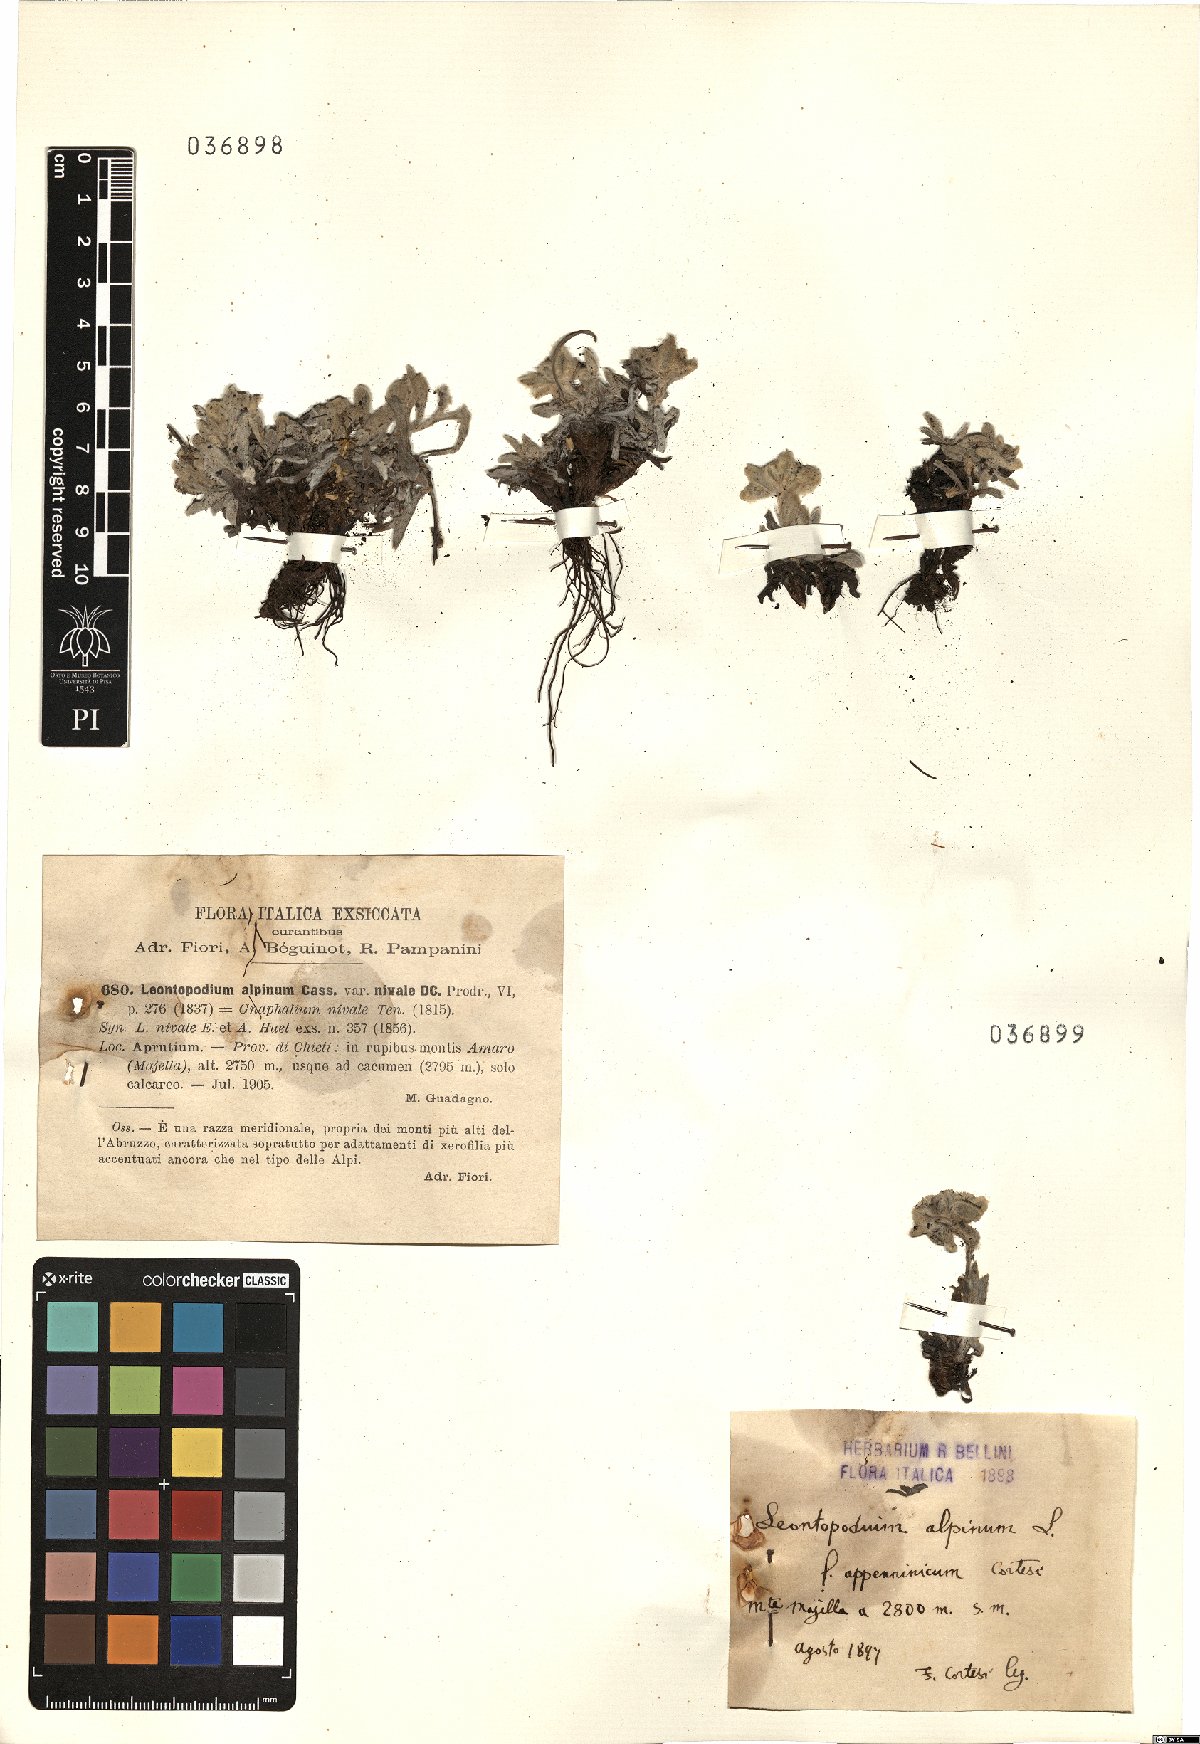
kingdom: Plantae
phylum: Tracheophyta
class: Magnoliopsida
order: Asterales
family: Asteraceae
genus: Leontopodium
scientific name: Leontopodium nivale
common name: Edelweiss
